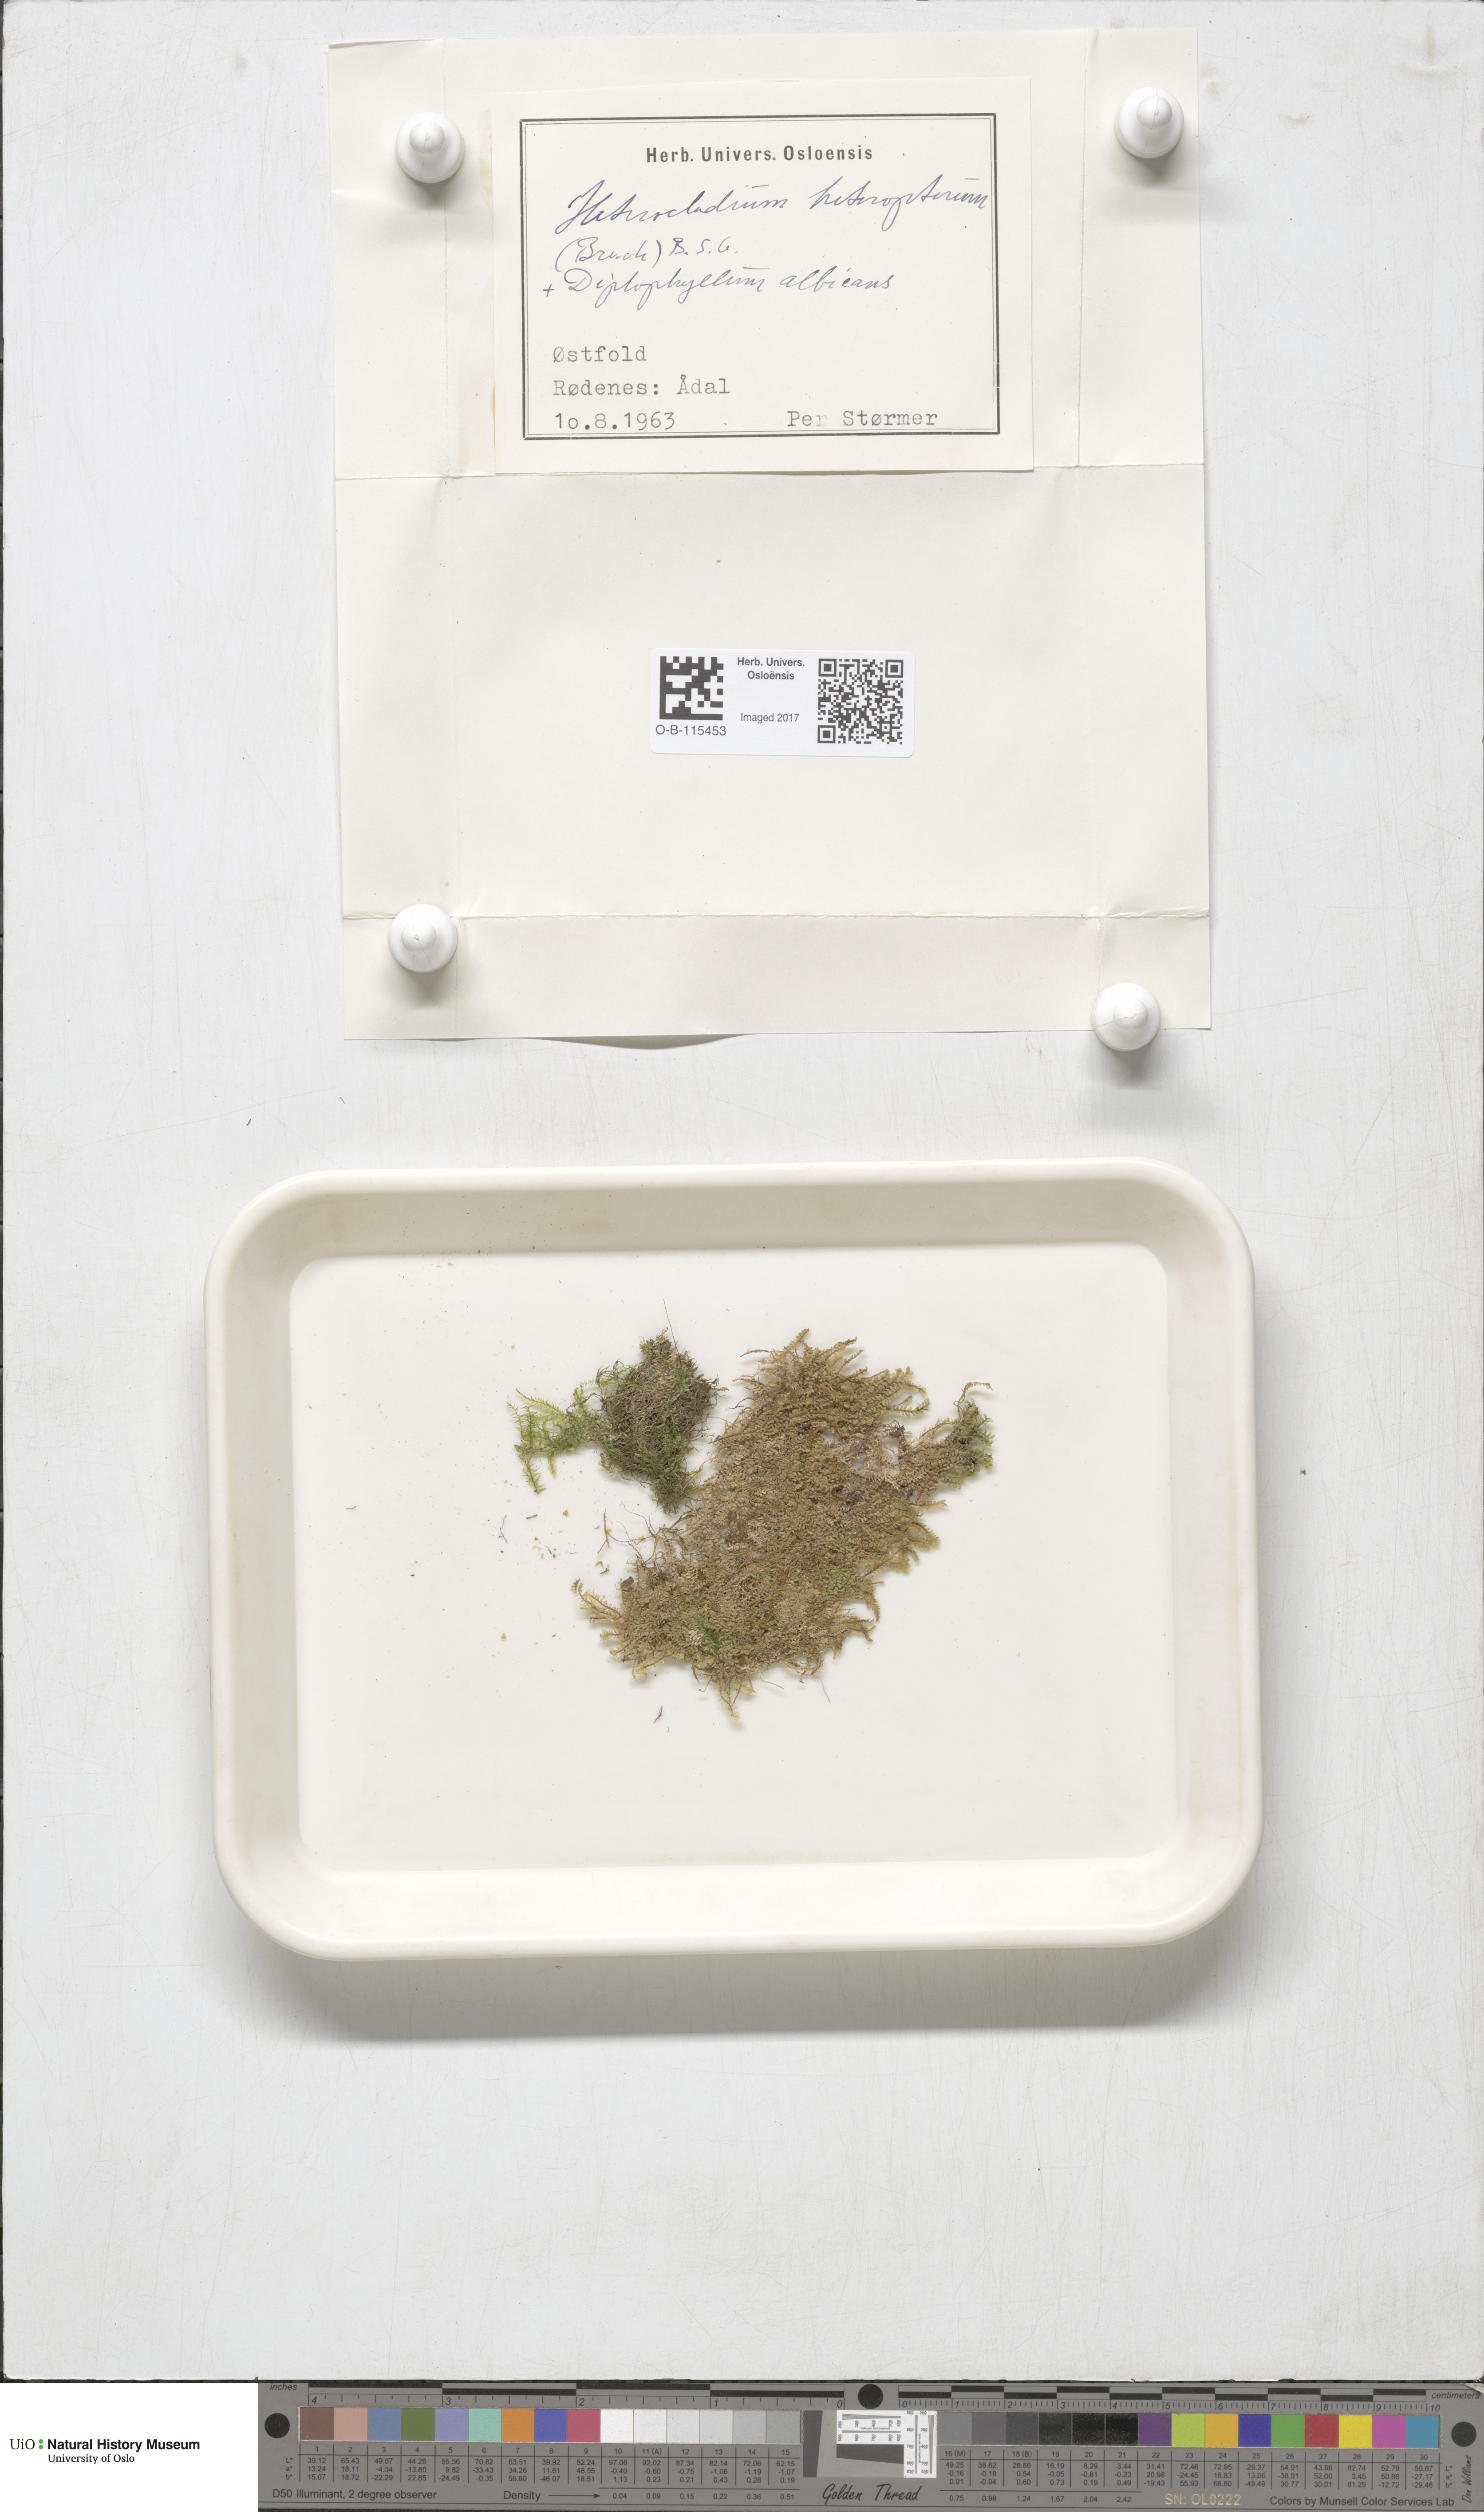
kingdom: Plantae
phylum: Bryophyta
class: Bryopsida
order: Hypnales
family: Lembophyllaceae
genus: Heterocladium
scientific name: Heterocladium heteropterum
